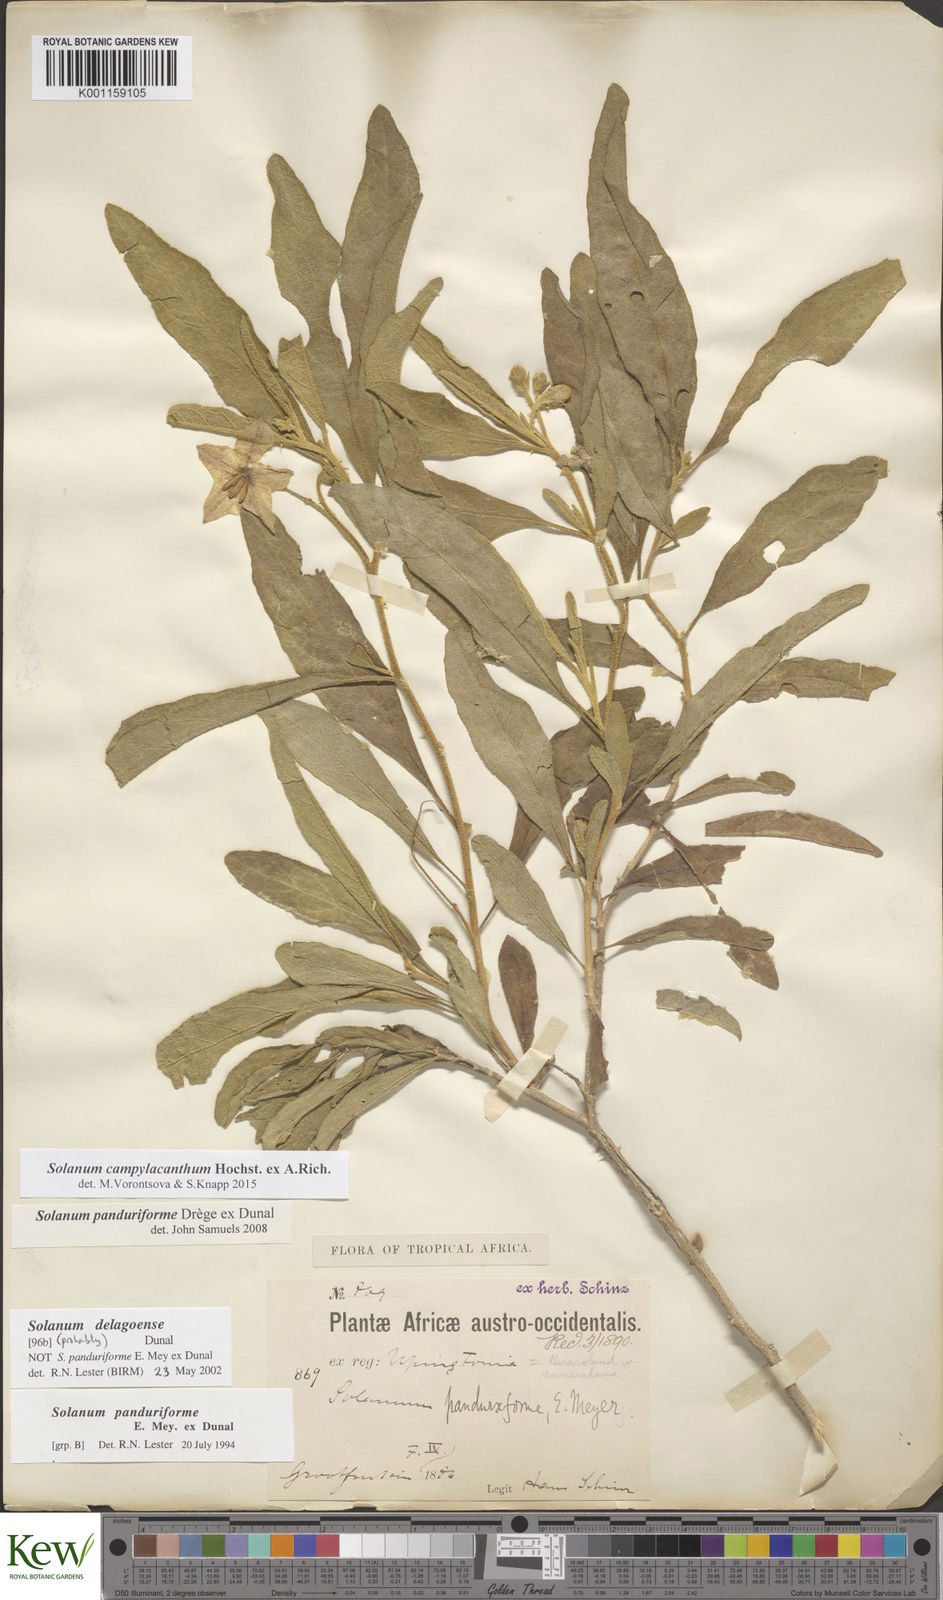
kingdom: Plantae
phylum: Tracheophyta
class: Magnoliopsida
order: Solanales
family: Solanaceae
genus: Solanum
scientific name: Solanum campylacanthum
